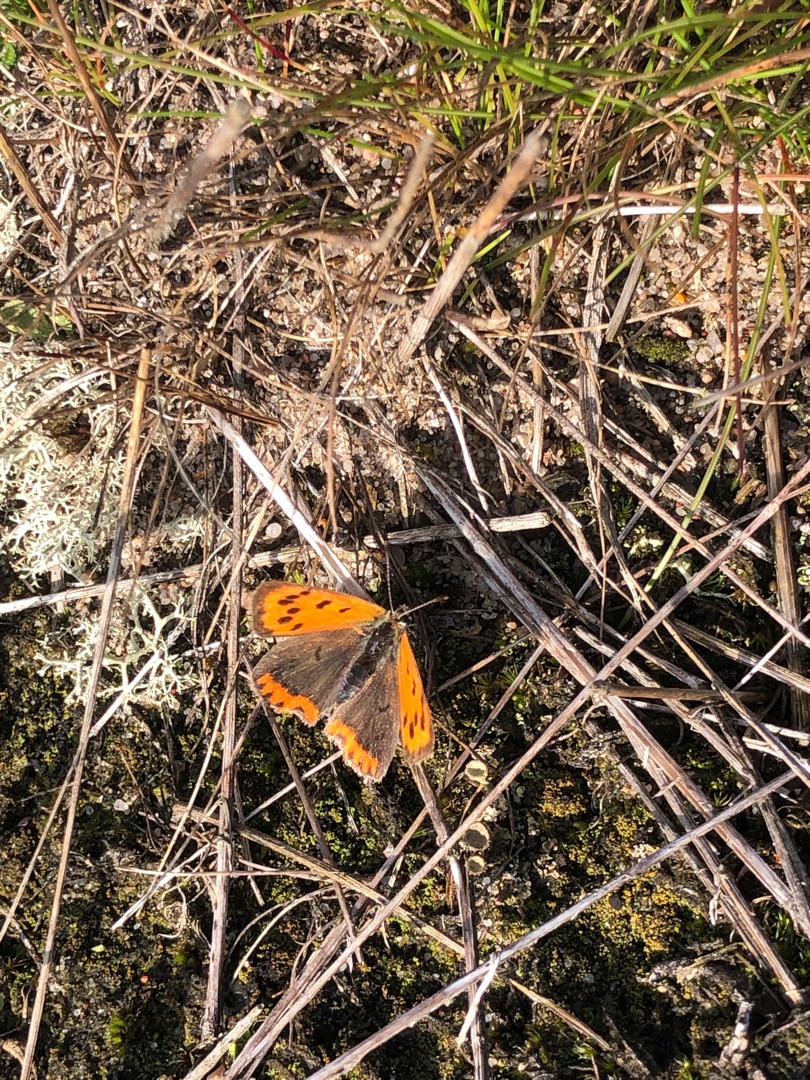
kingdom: Animalia
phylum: Arthropoda
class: Insecta
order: Lepidoptera
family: Lycaenidae
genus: Lycaena
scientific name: Lycaena phlaeas
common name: Lille ildfugl
